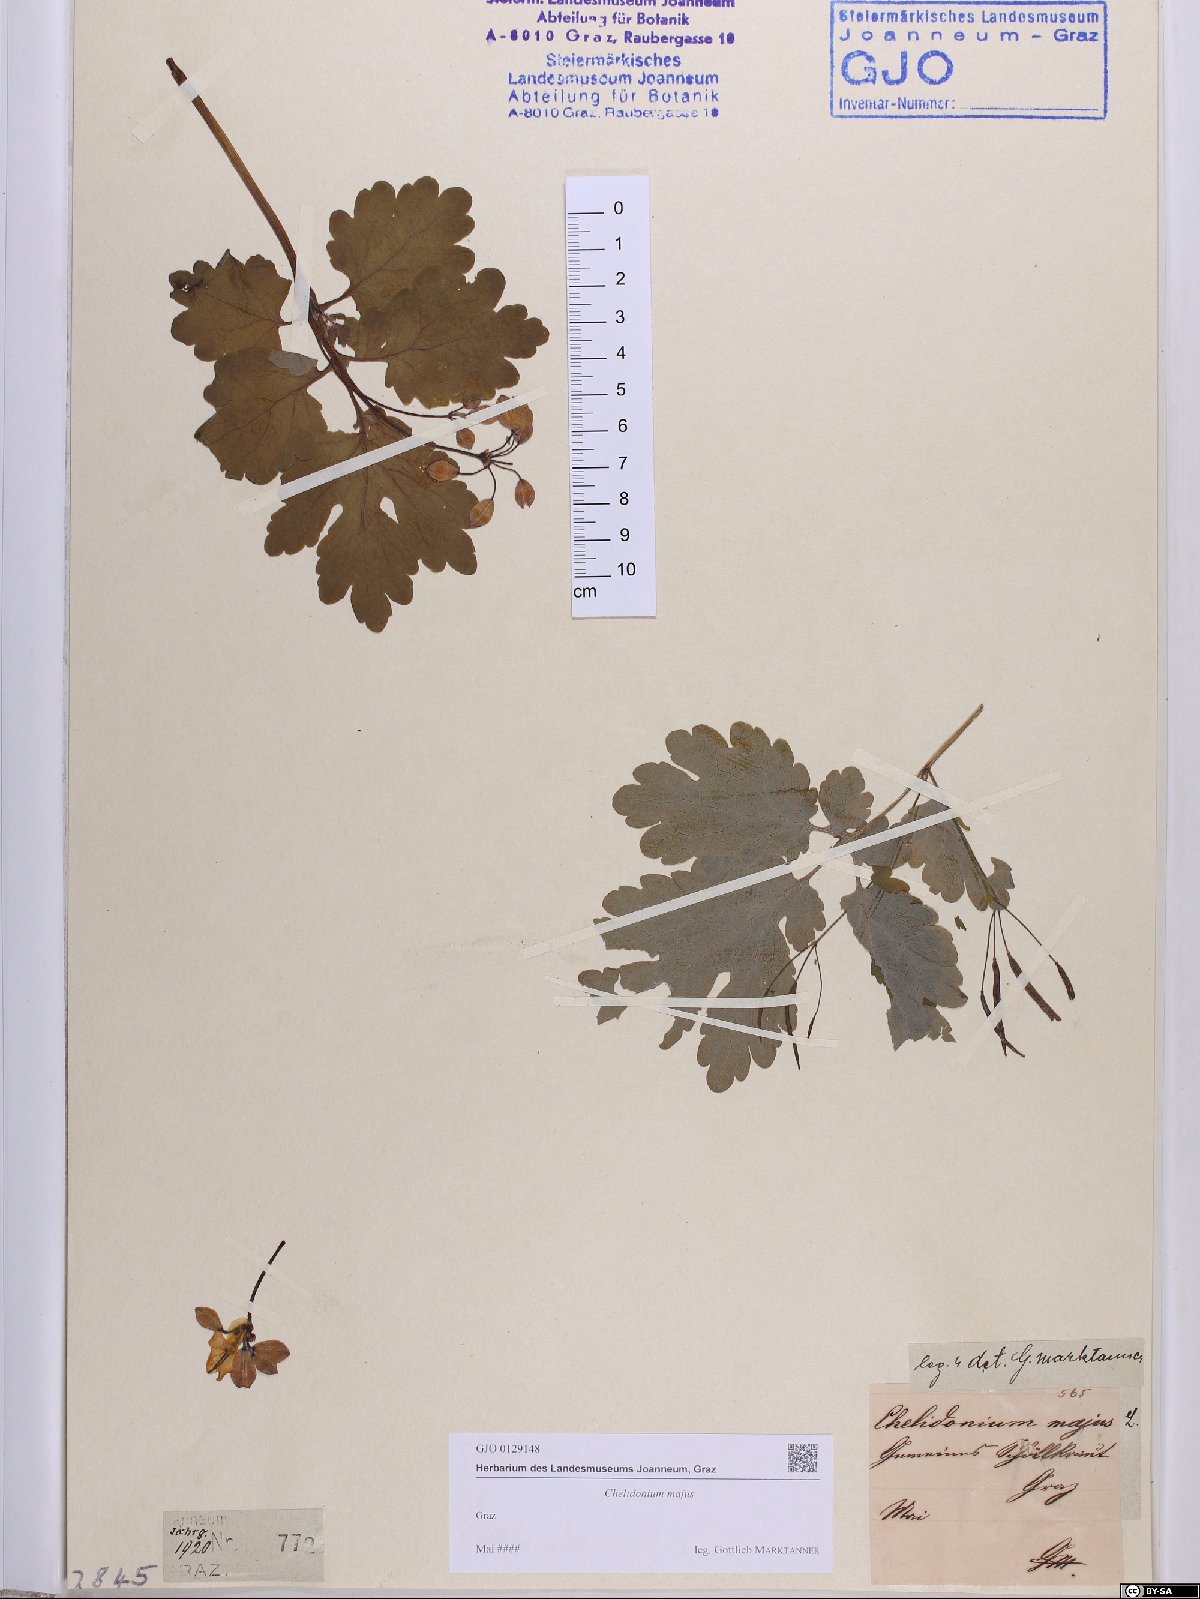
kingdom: Plantae
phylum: Tracheophyta
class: Magnoliopsida
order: Ranunculales
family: Papaveraceae
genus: Chelidonium
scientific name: Chelidonium majus
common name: Greater celandine
